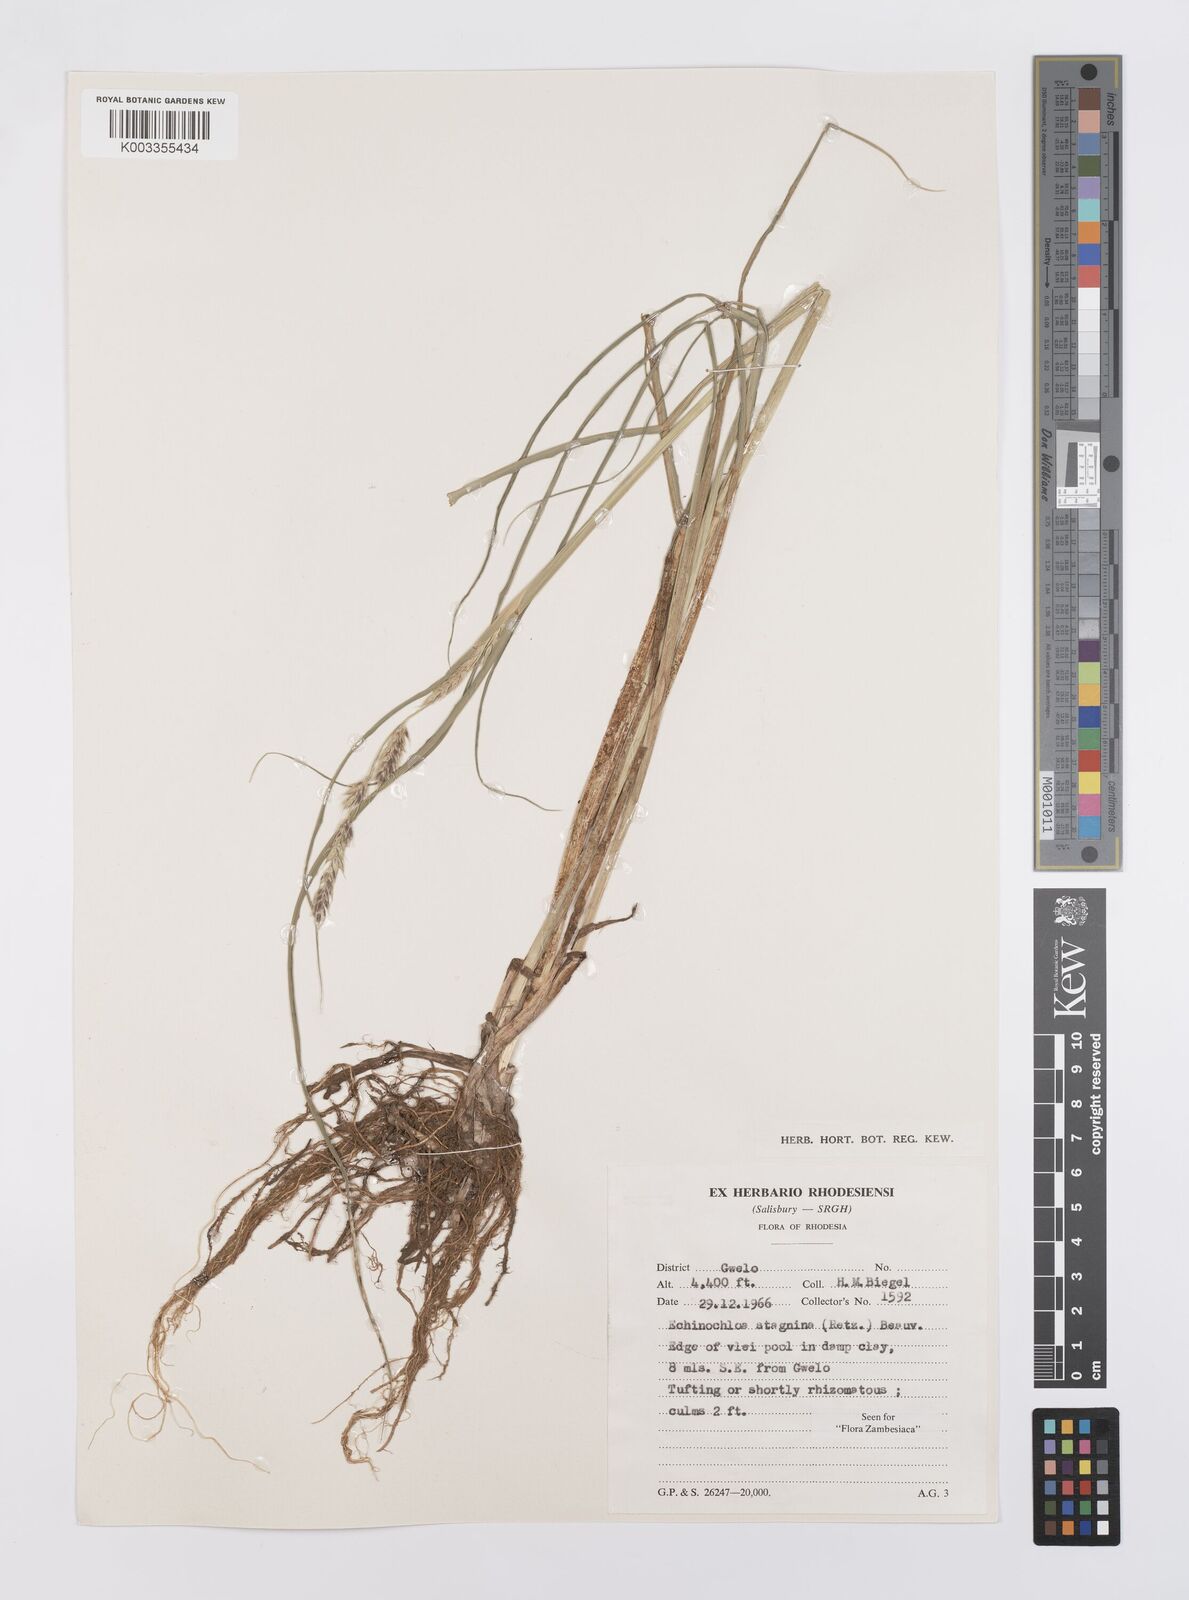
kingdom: Plantae
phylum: Tracheophyta
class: Liliopsida
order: Poales
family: Poaceae
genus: Echinochloa
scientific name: Echinochloa stagnina
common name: Burgu grass
